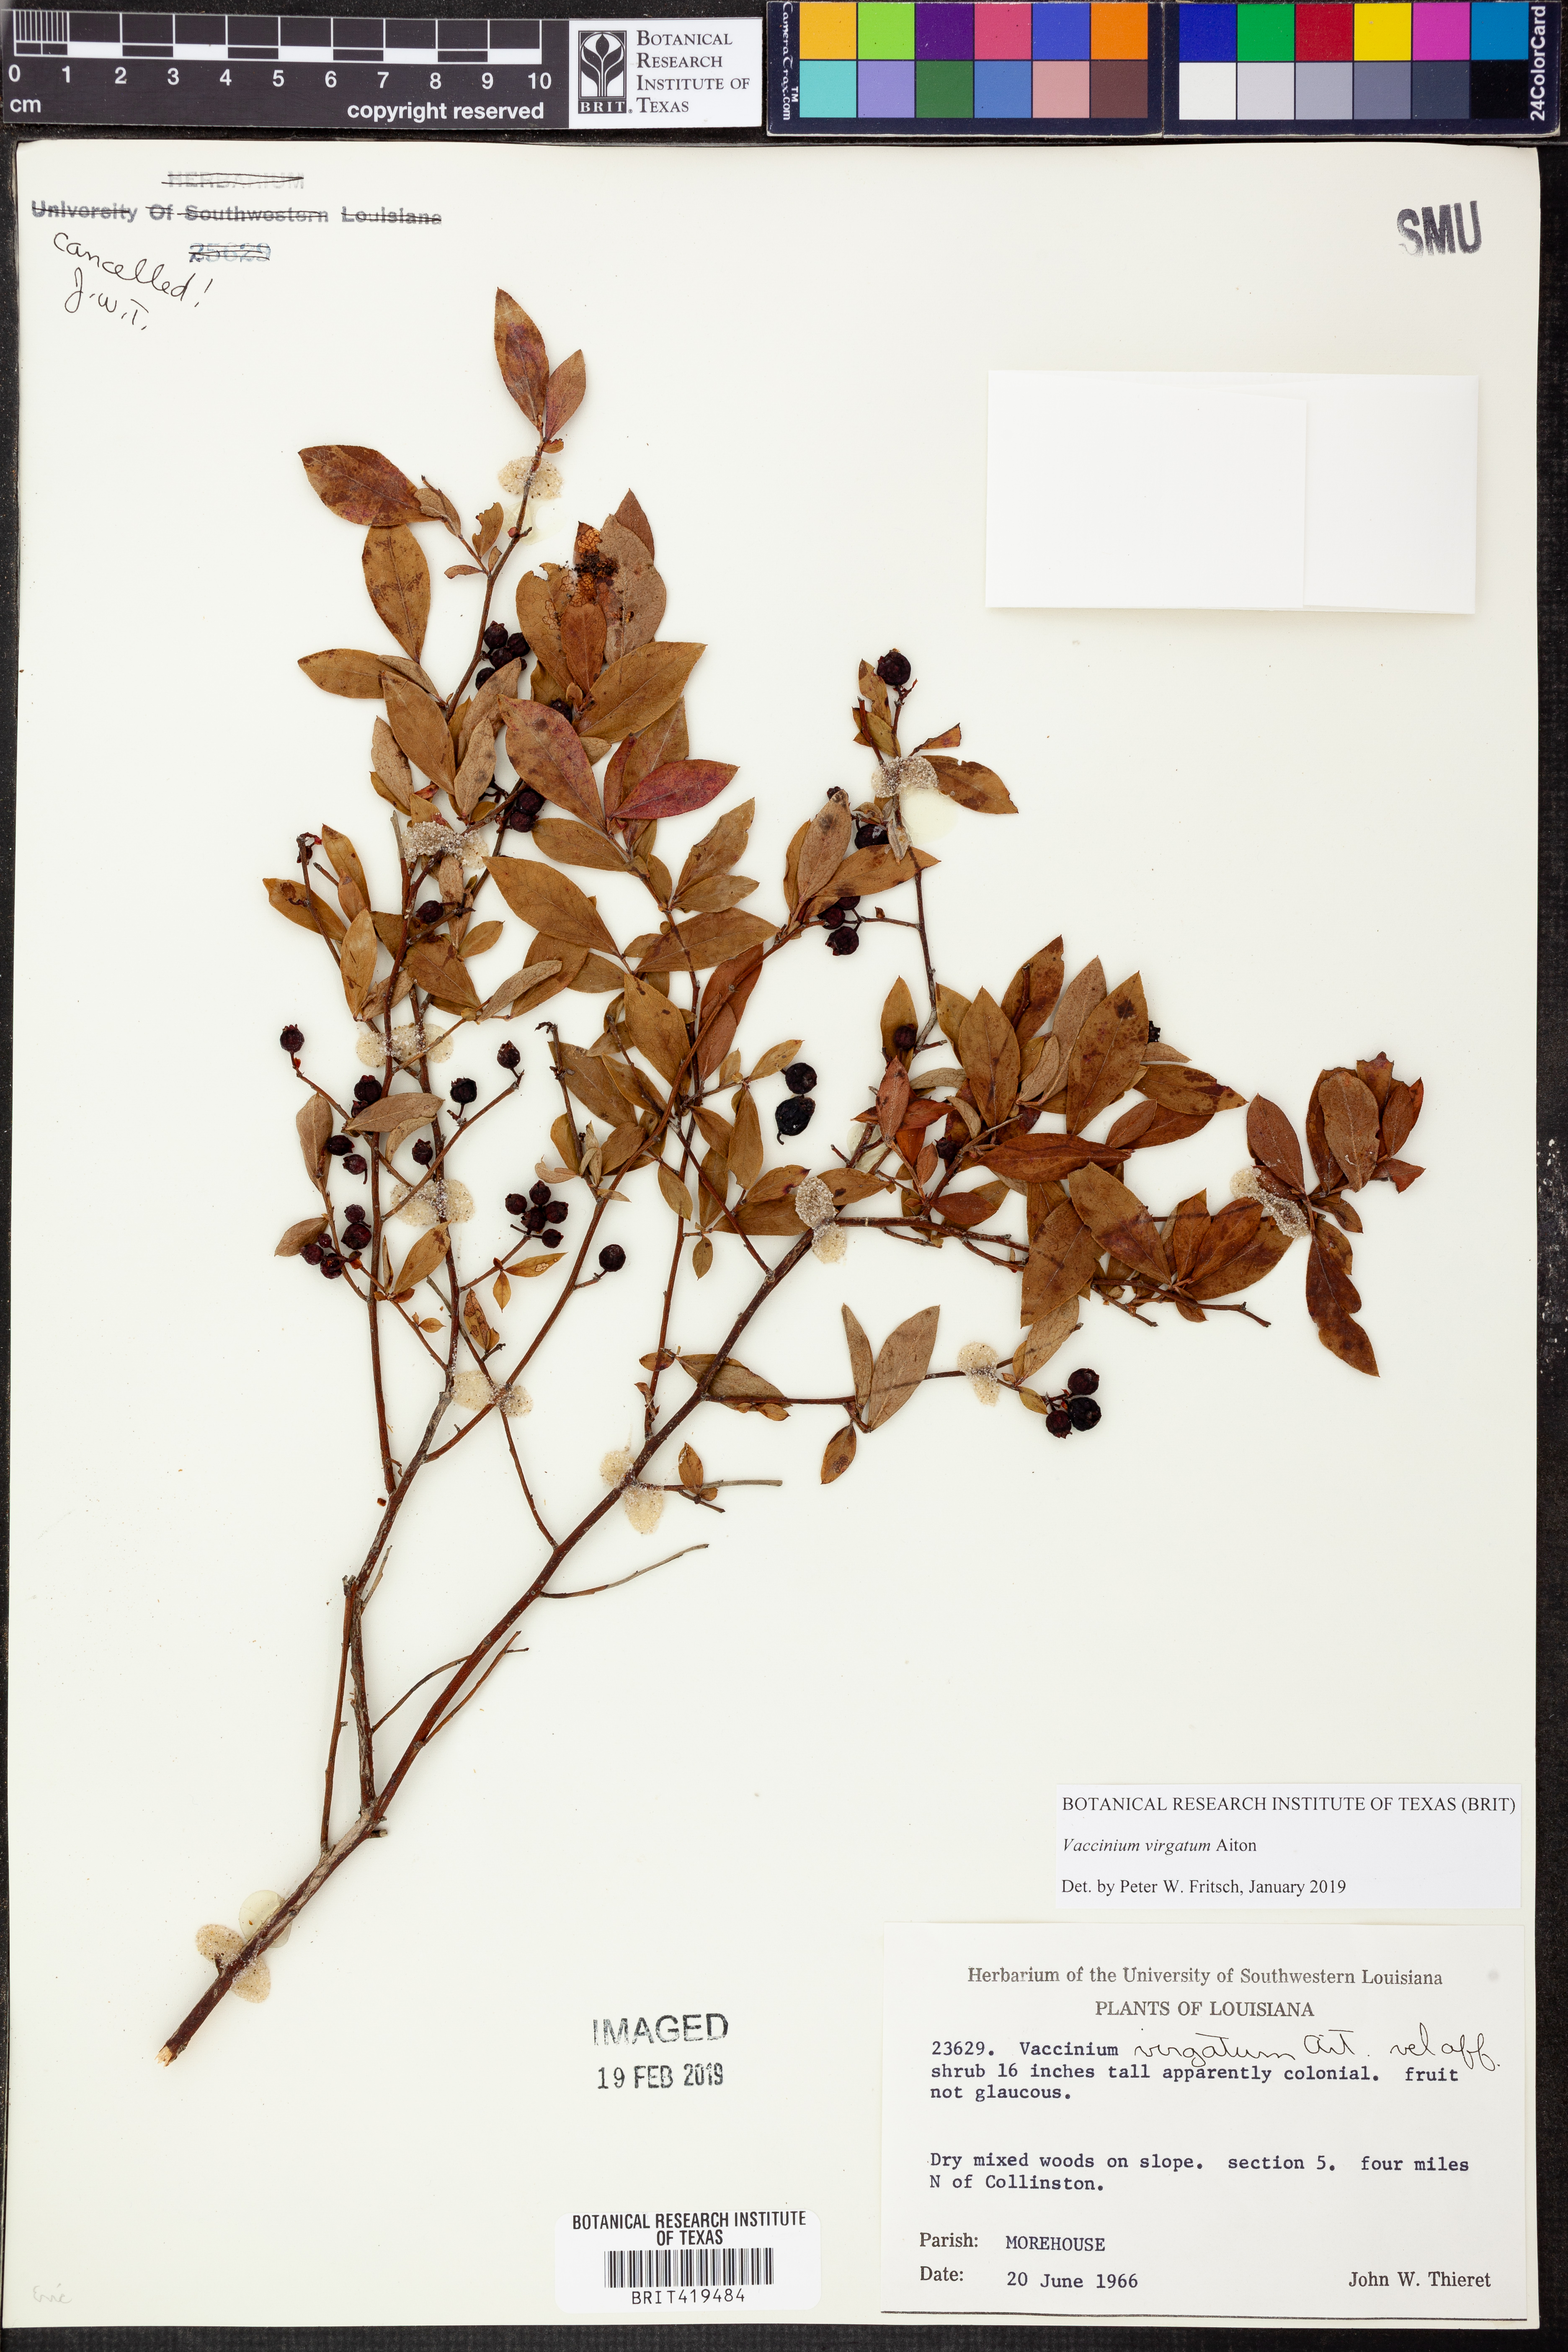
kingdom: Plantae
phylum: Tracheophyta
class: Magnoliopsida
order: Ericales
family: Ericaceae
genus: Vaccinium
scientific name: Vaccinium corymbosum
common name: Blueberry
